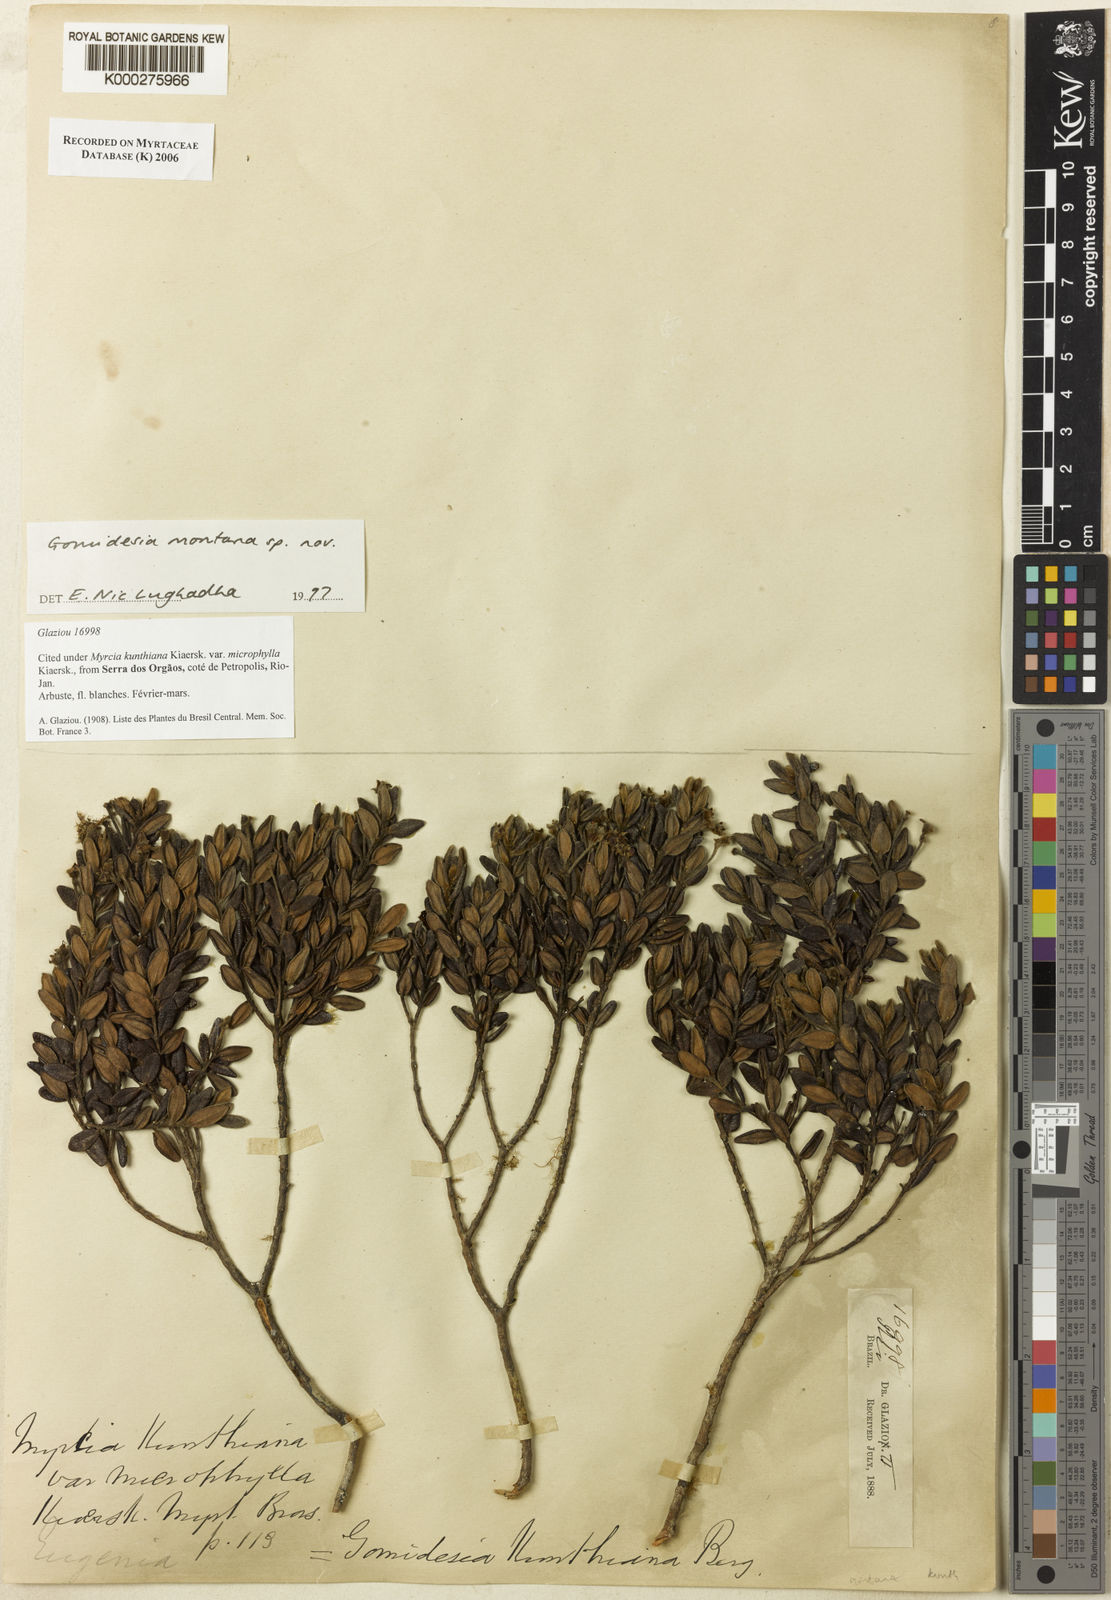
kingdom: Plantae
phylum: Tracheophyta
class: Magnoliopsida
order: Myrtales
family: Myrtaceae
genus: Myrcia
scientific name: Myrcia montana
